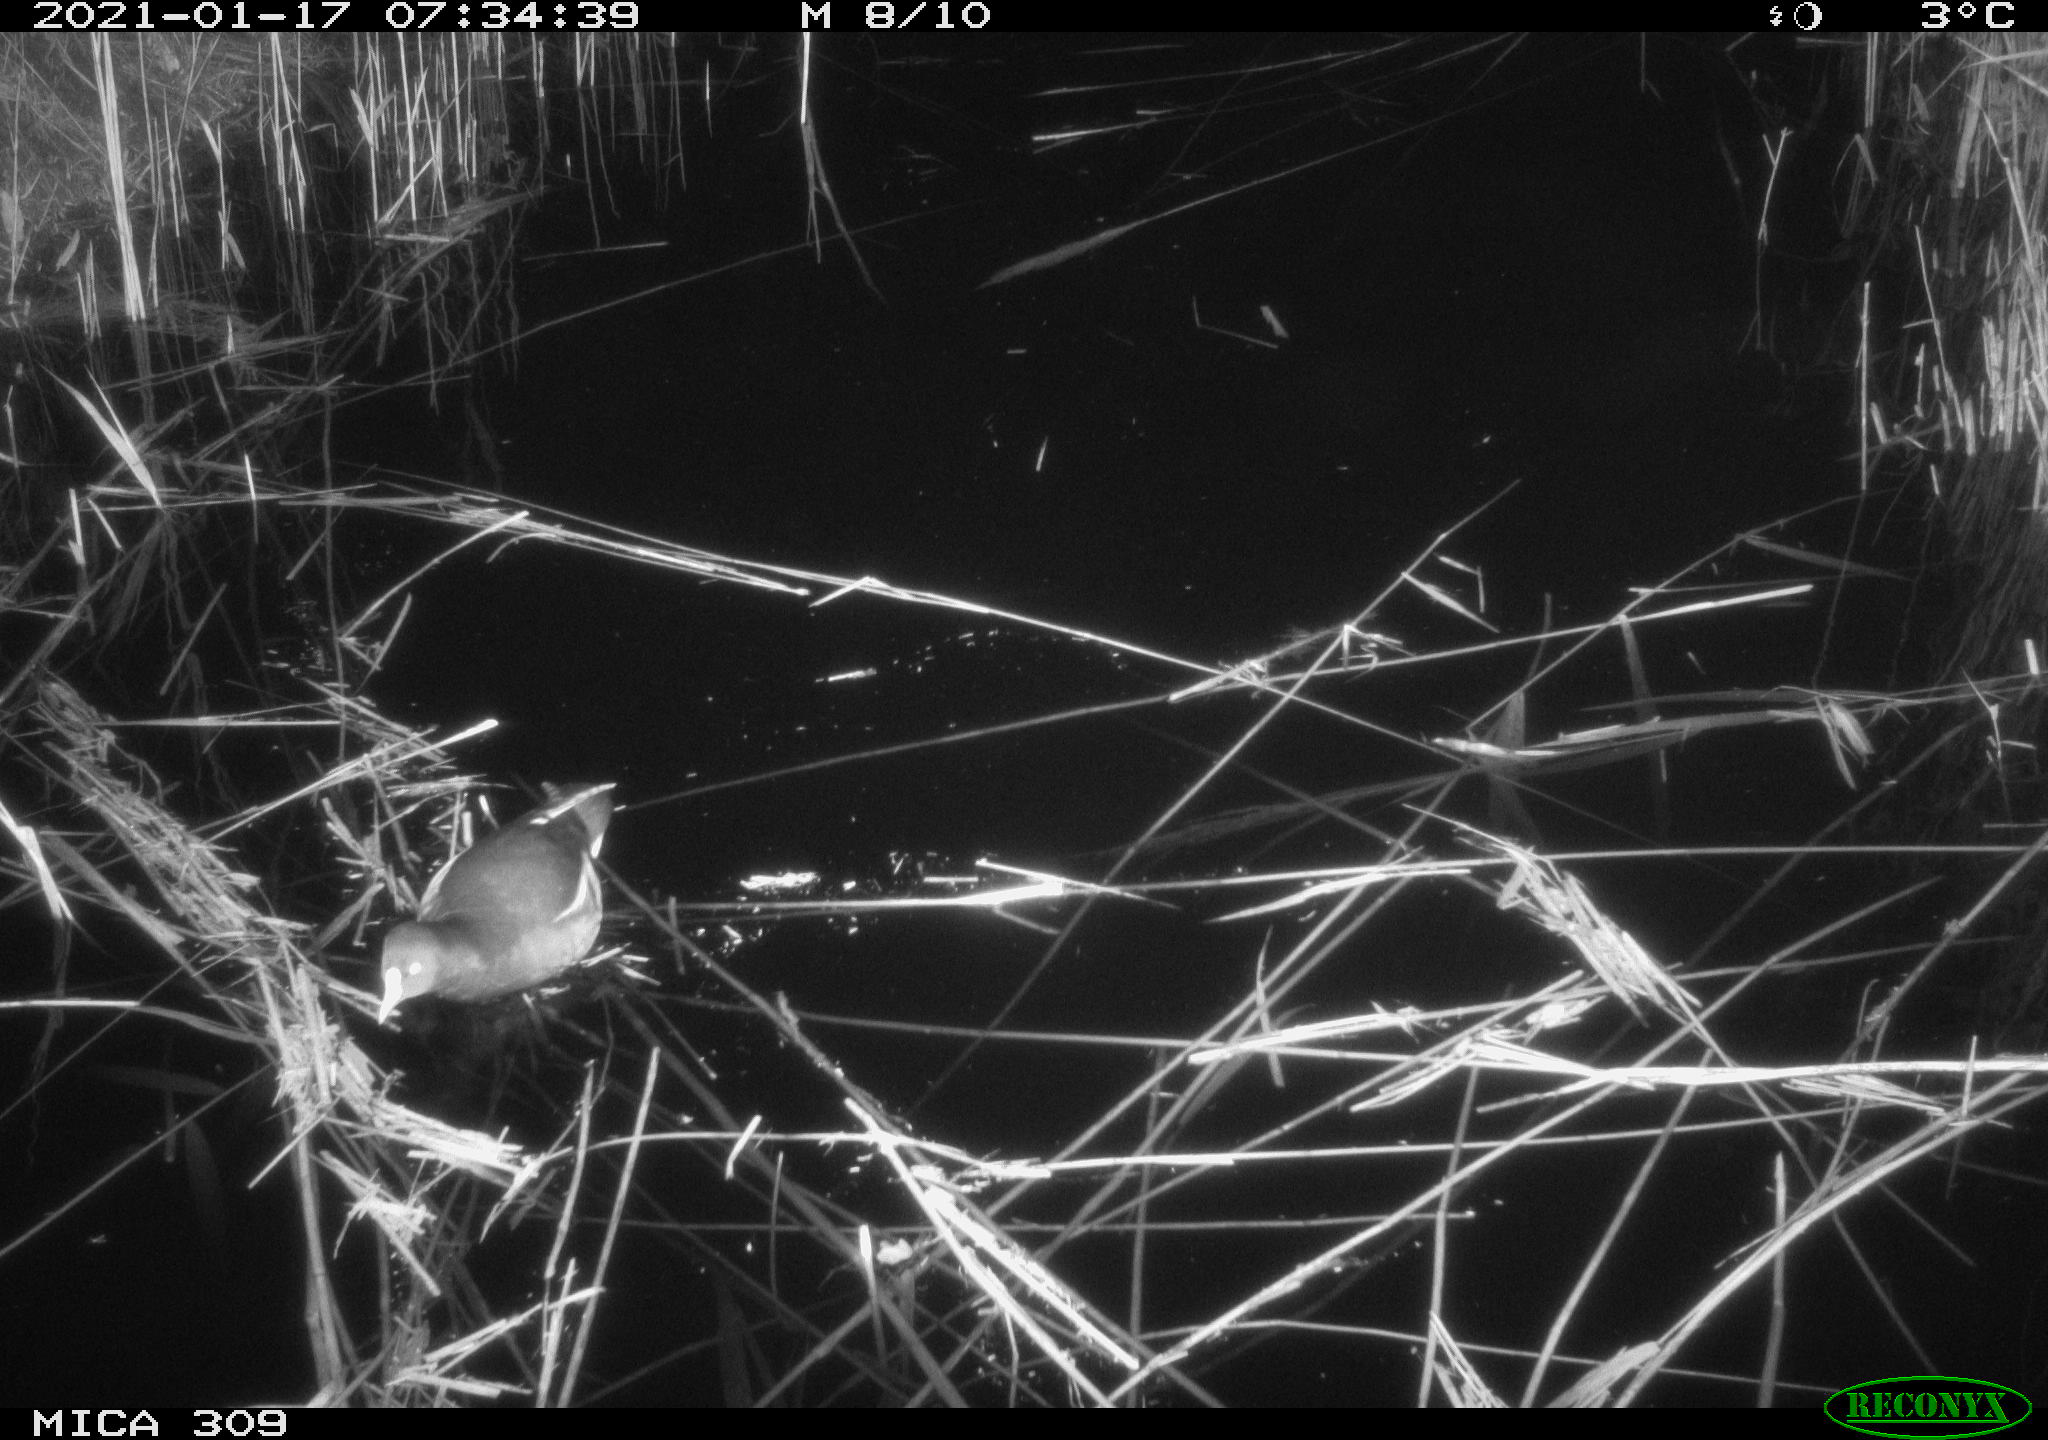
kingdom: Animalia
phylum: Chordata
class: Aves
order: Gruiformes
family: Rallidae
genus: Gallinula
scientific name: Gallinula chloropus
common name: Common moorhen
